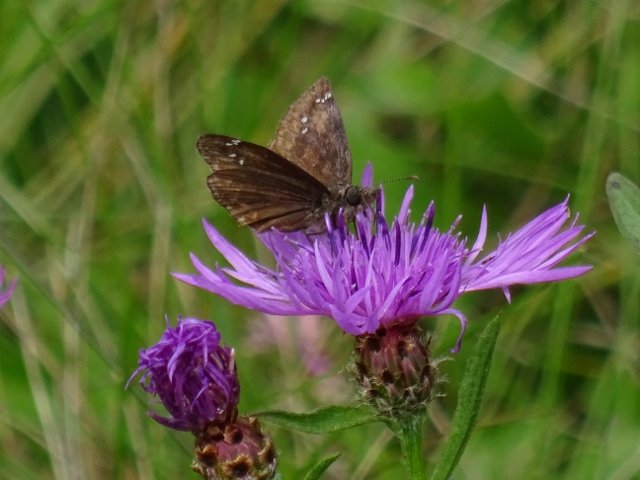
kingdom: Animalia
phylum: Arthropoda
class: Insecta
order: Lepidoptera
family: Hesperiidae
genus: Gesta
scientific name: Gesta
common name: Wild Indigo Duskywing
